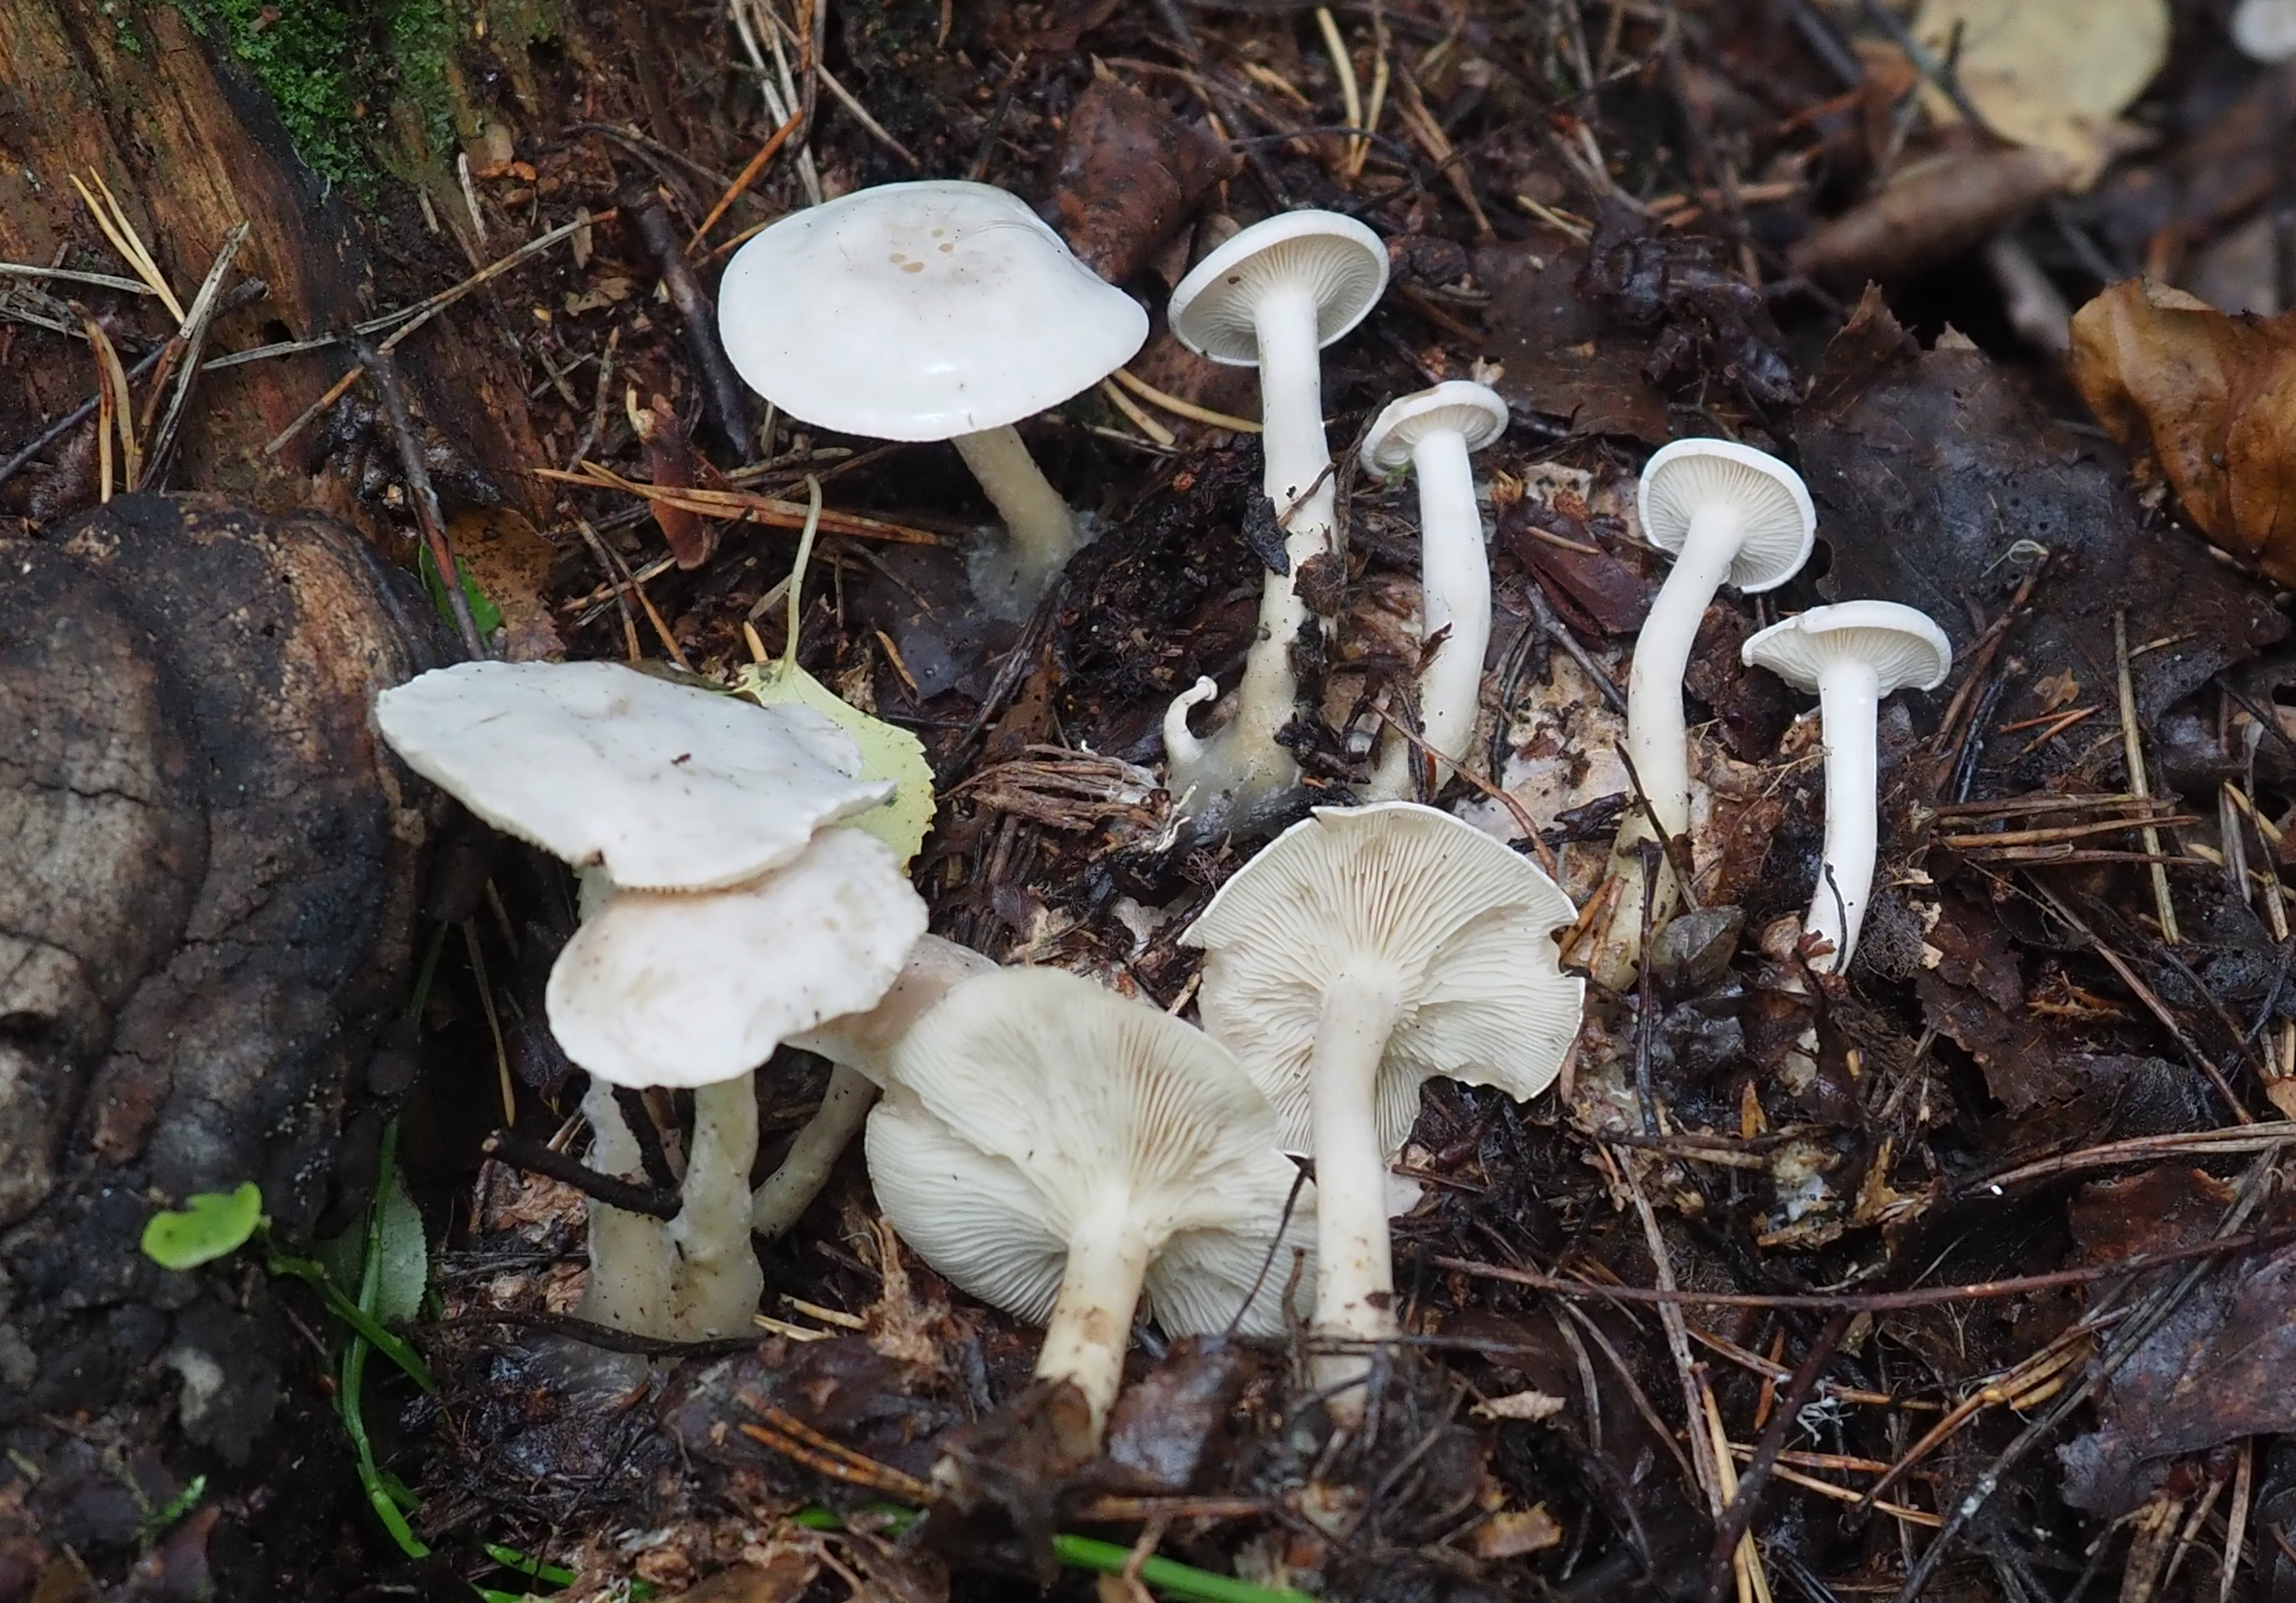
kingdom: Fungi
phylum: Basidiomycota
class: Agaricomycetes
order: Agaricales
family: Tricholomataceae
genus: Leucocybe
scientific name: Leucocybe connata
